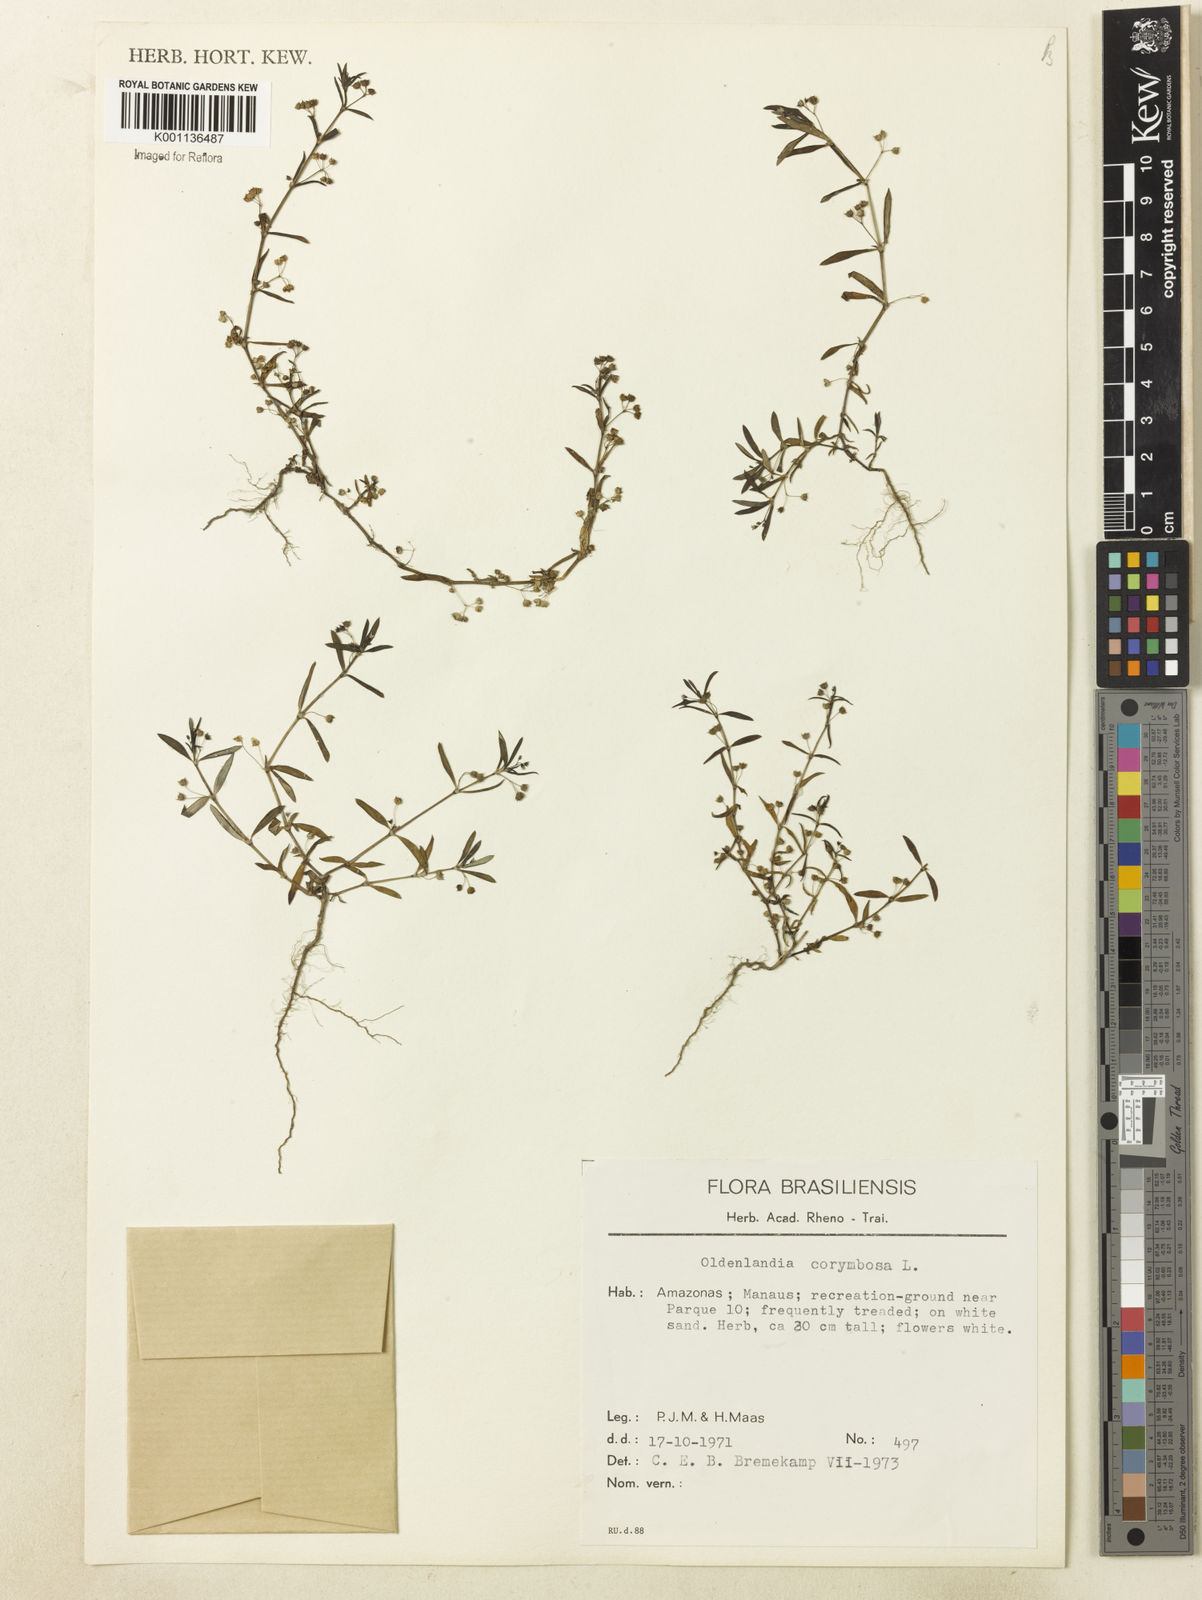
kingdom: Plantae
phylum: Tracheophyta
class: Magnoliopsida
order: Gentianales
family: Rubiaceae
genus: Oldenlandia
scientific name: Oldenlandia corymbosa
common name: Flat-top mille graines
